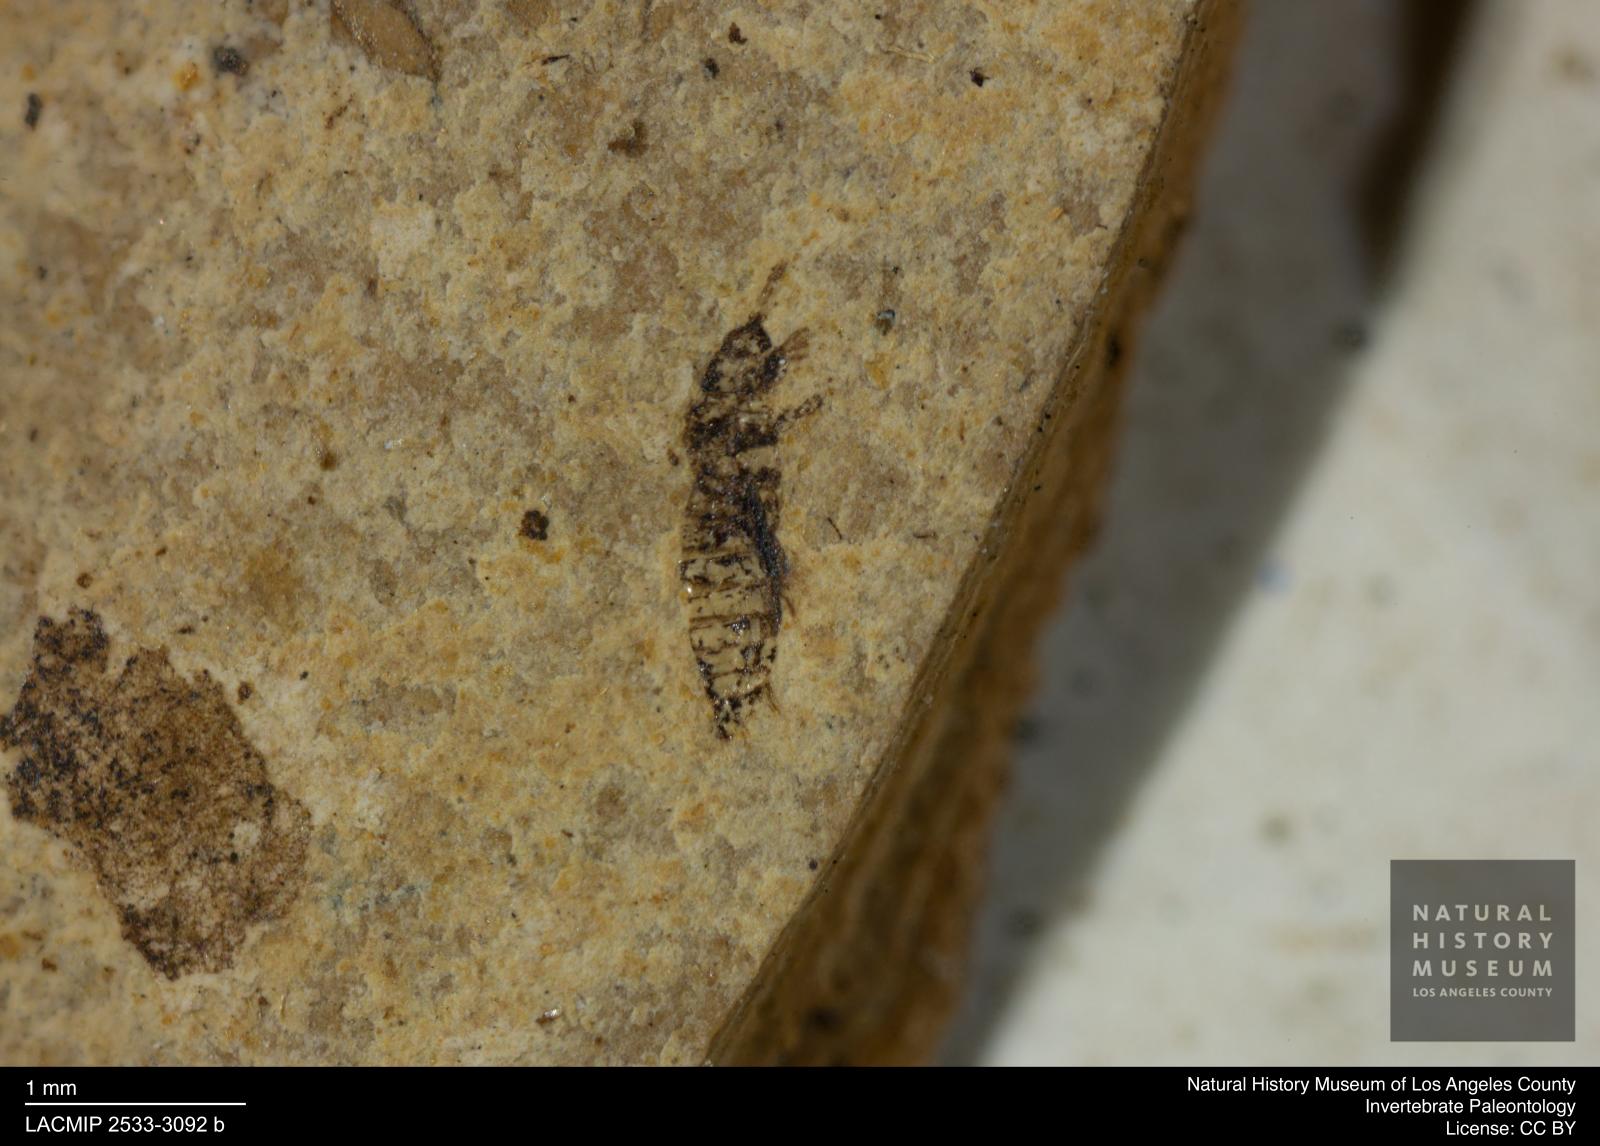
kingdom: Animalia
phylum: Arthropoda
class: Insecta
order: Thysanoptera
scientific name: Thysanoptera
